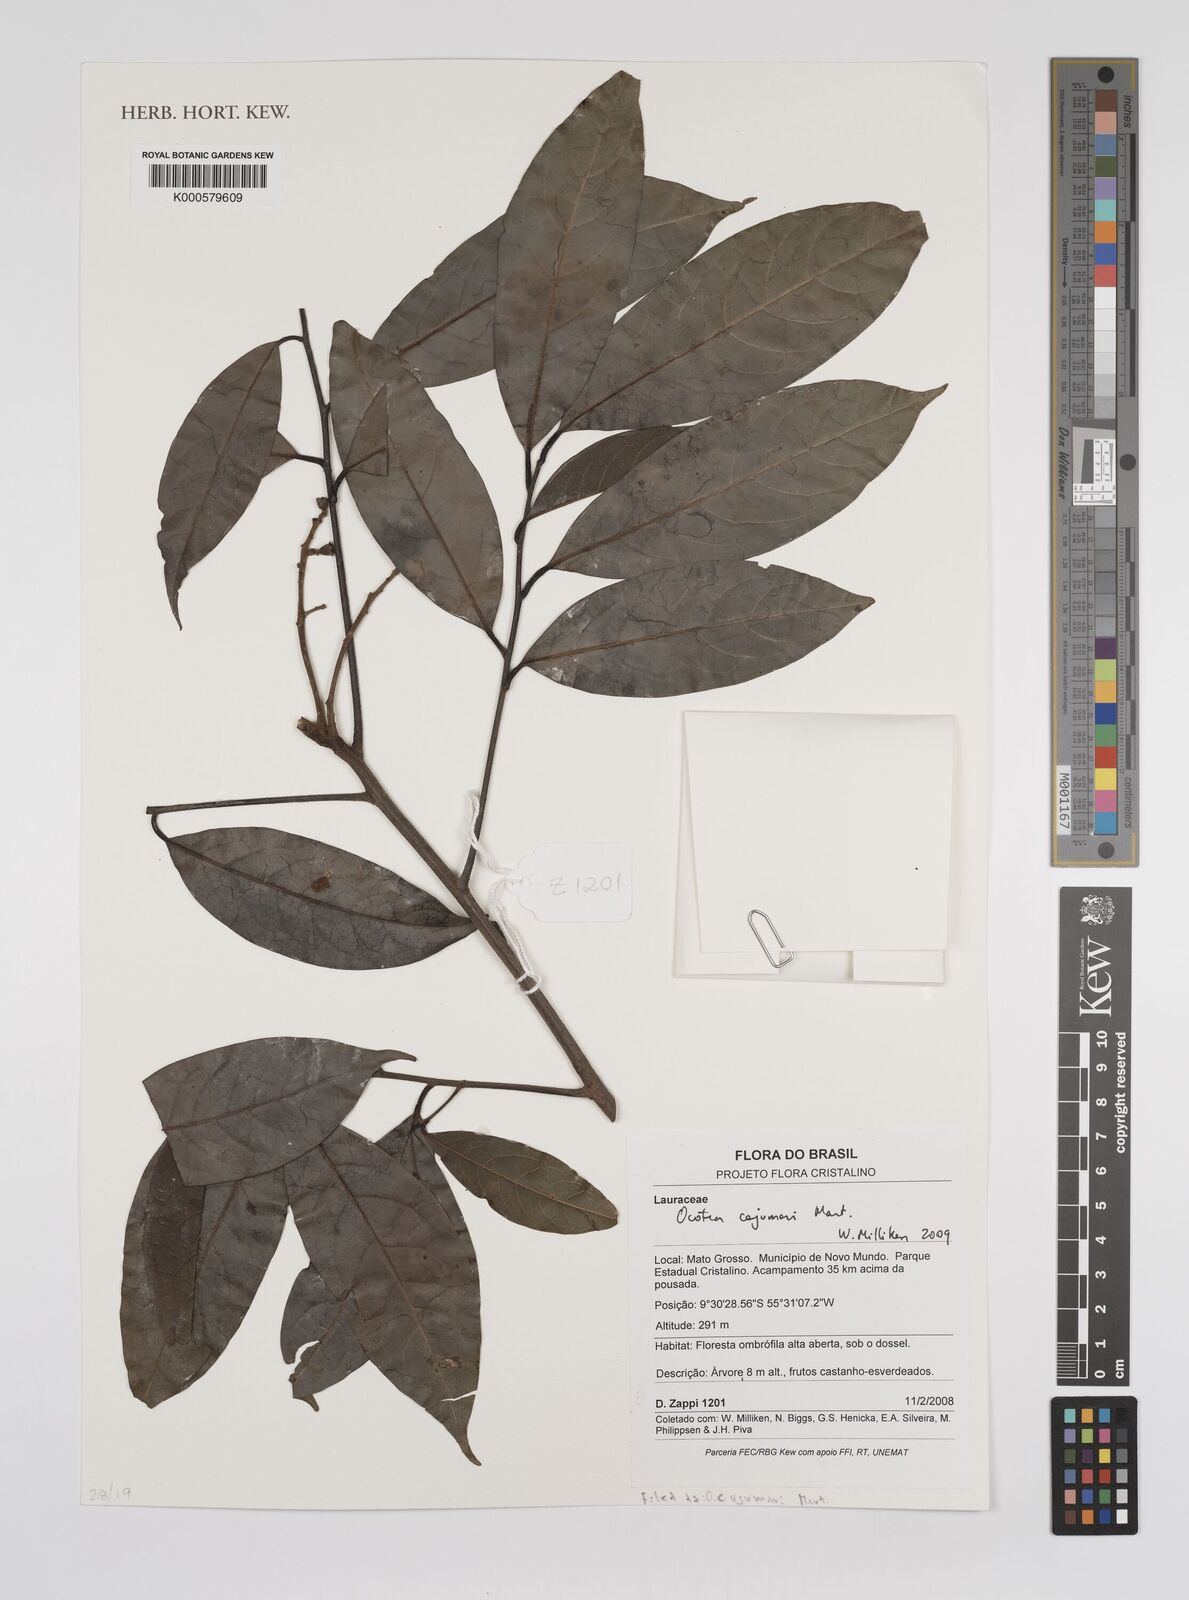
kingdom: Plantae
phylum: Tracheophyta
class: Magnoliopsida
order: Laurales
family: Lauraceae
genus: Ocotea
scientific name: Ocotea
